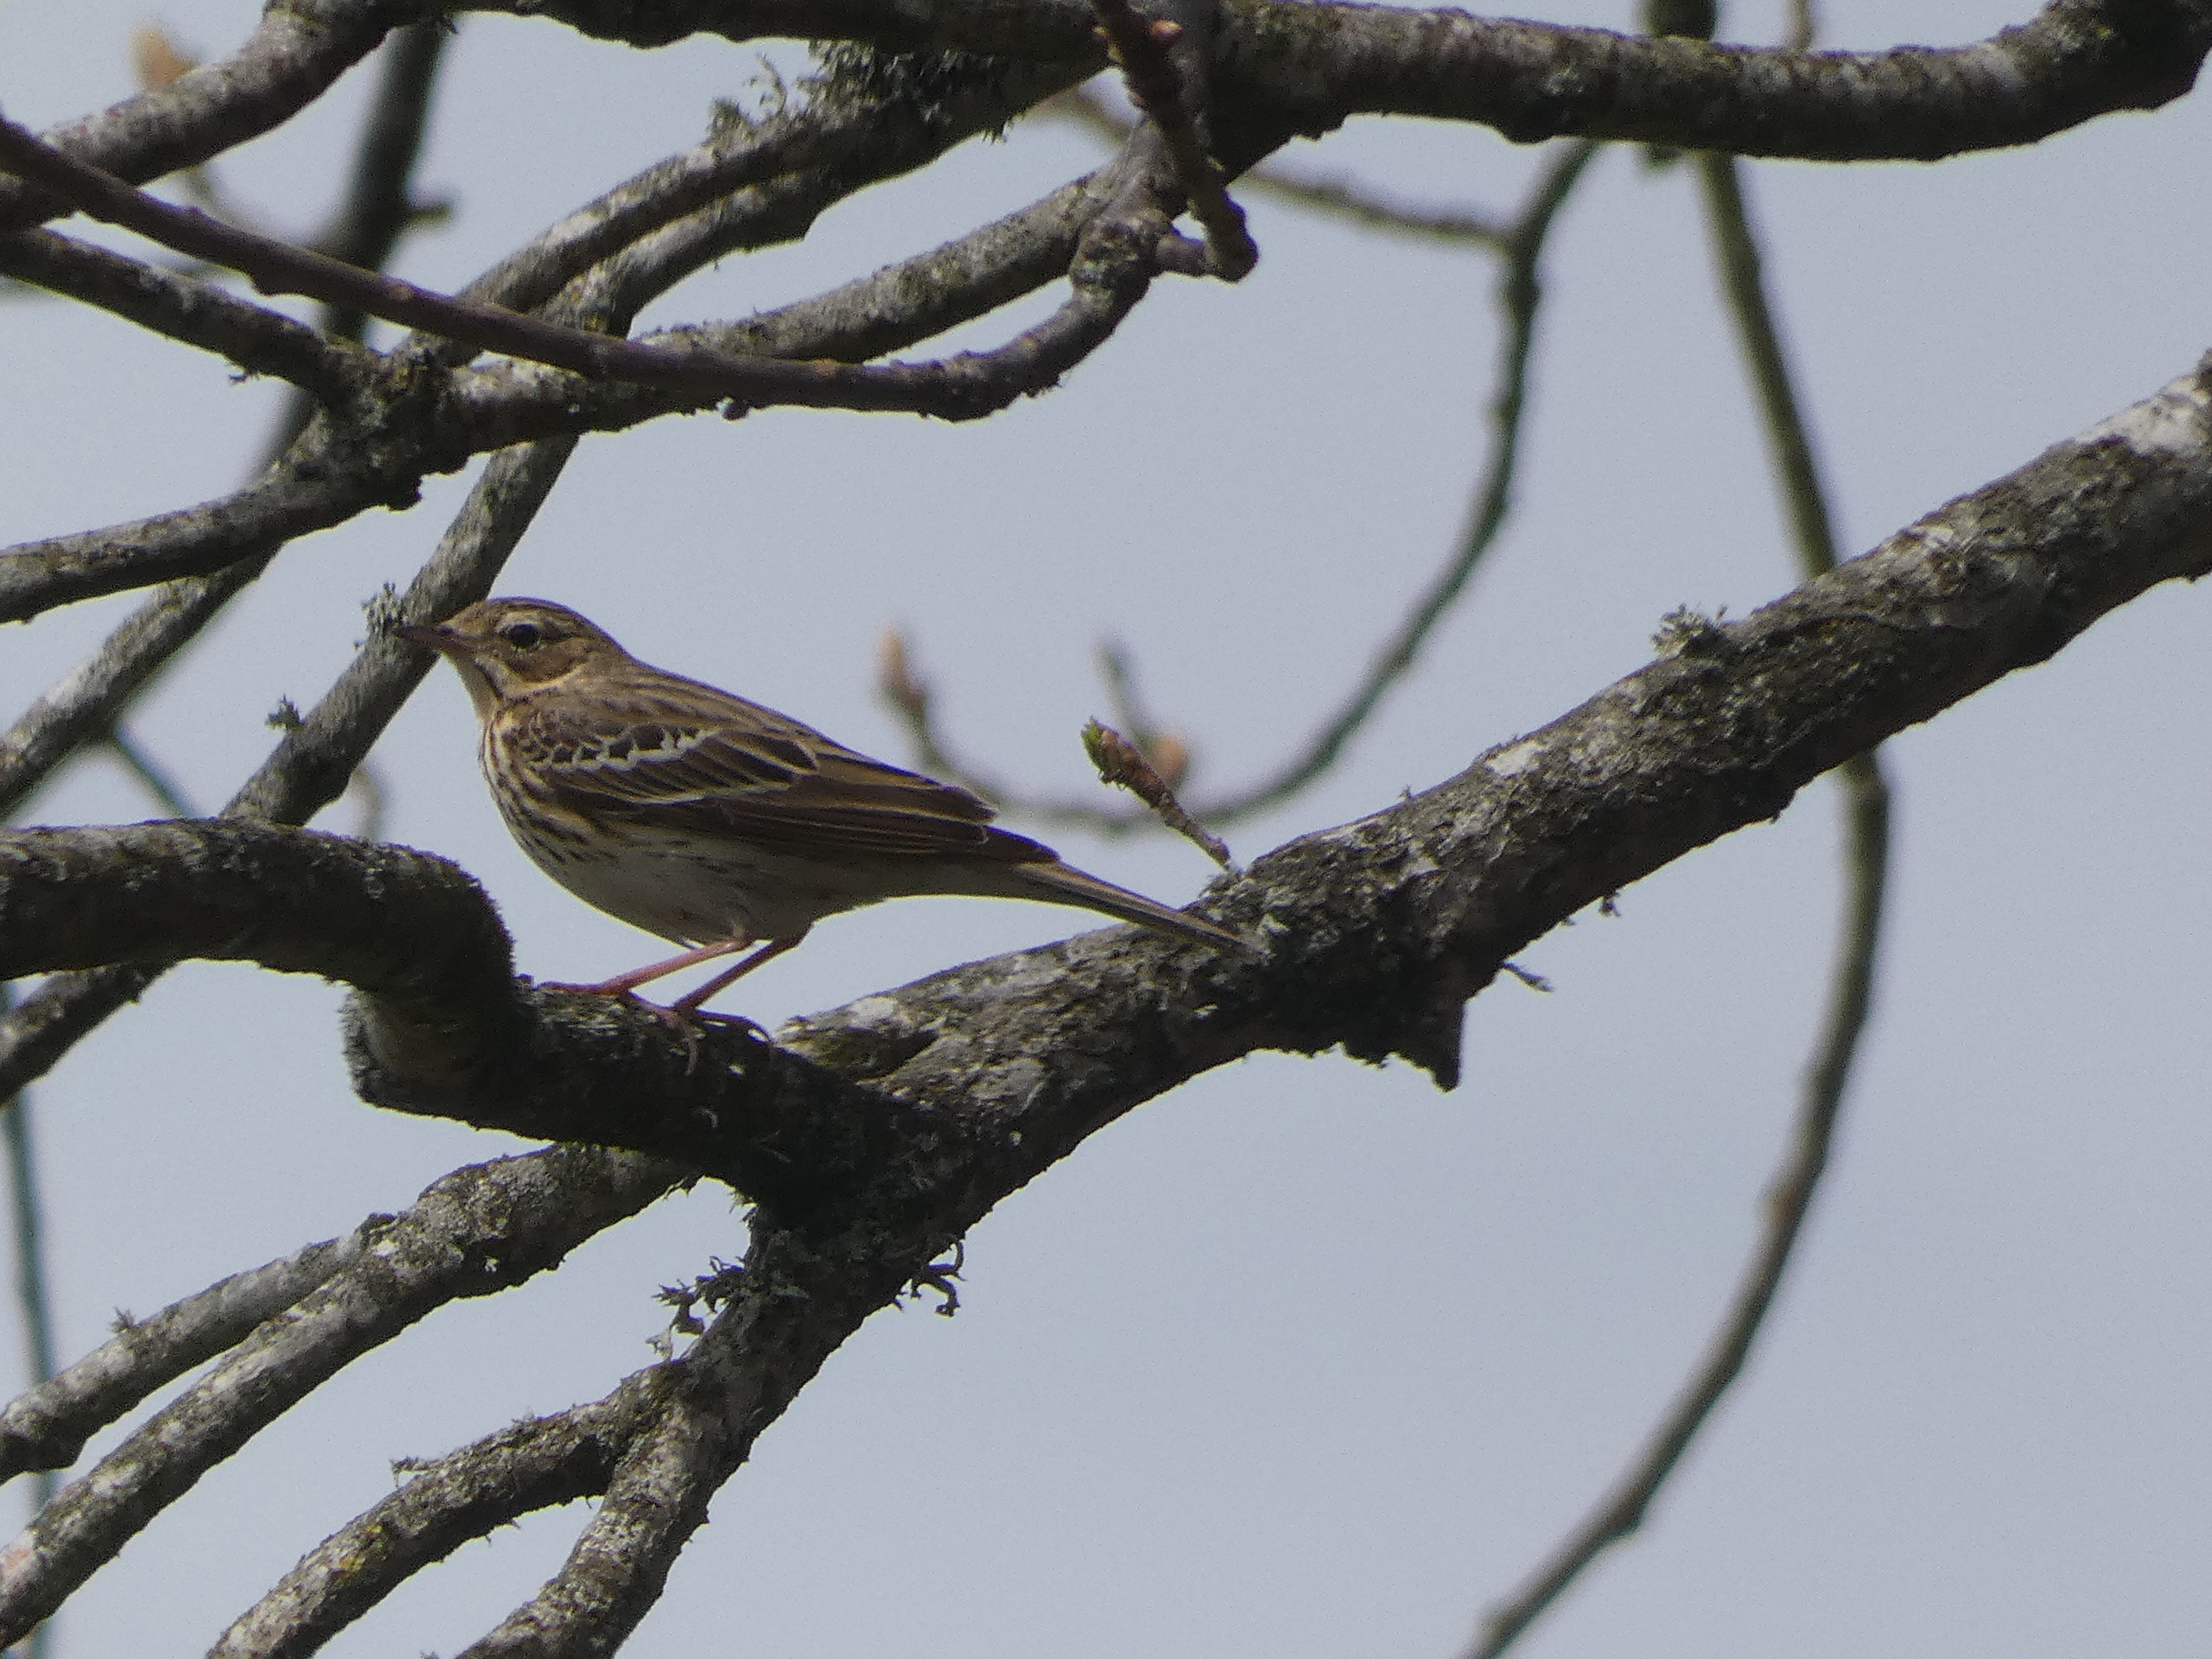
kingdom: Animalia
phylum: Chordata
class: Aves
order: Passeriformes
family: Motacillidae
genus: Anthus
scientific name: Anthus trivialis
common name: Skovpiber
